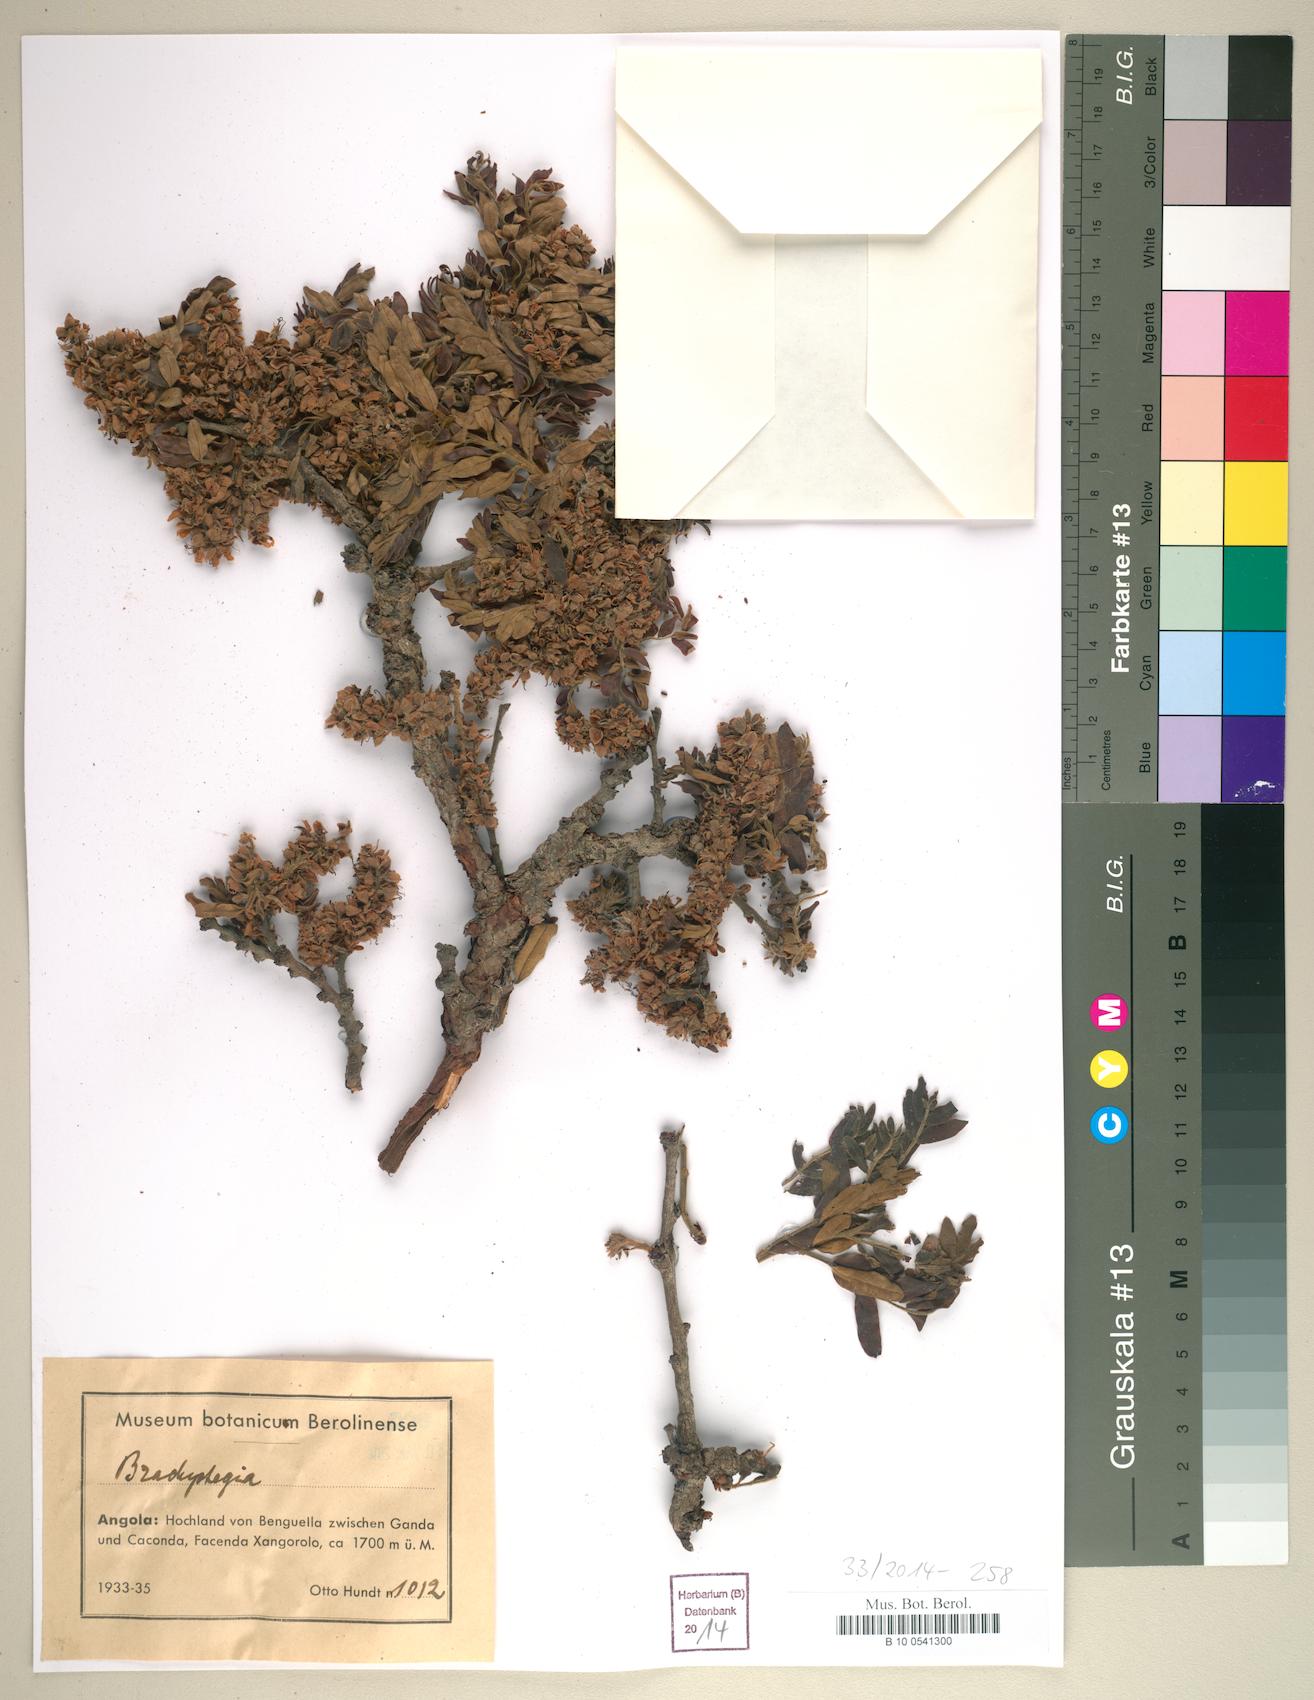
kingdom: Plantae
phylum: Tracheophyta
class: Magnoliopsida
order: Fabales
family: Fabaceae
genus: Brachystegia
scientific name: Brachystegia
